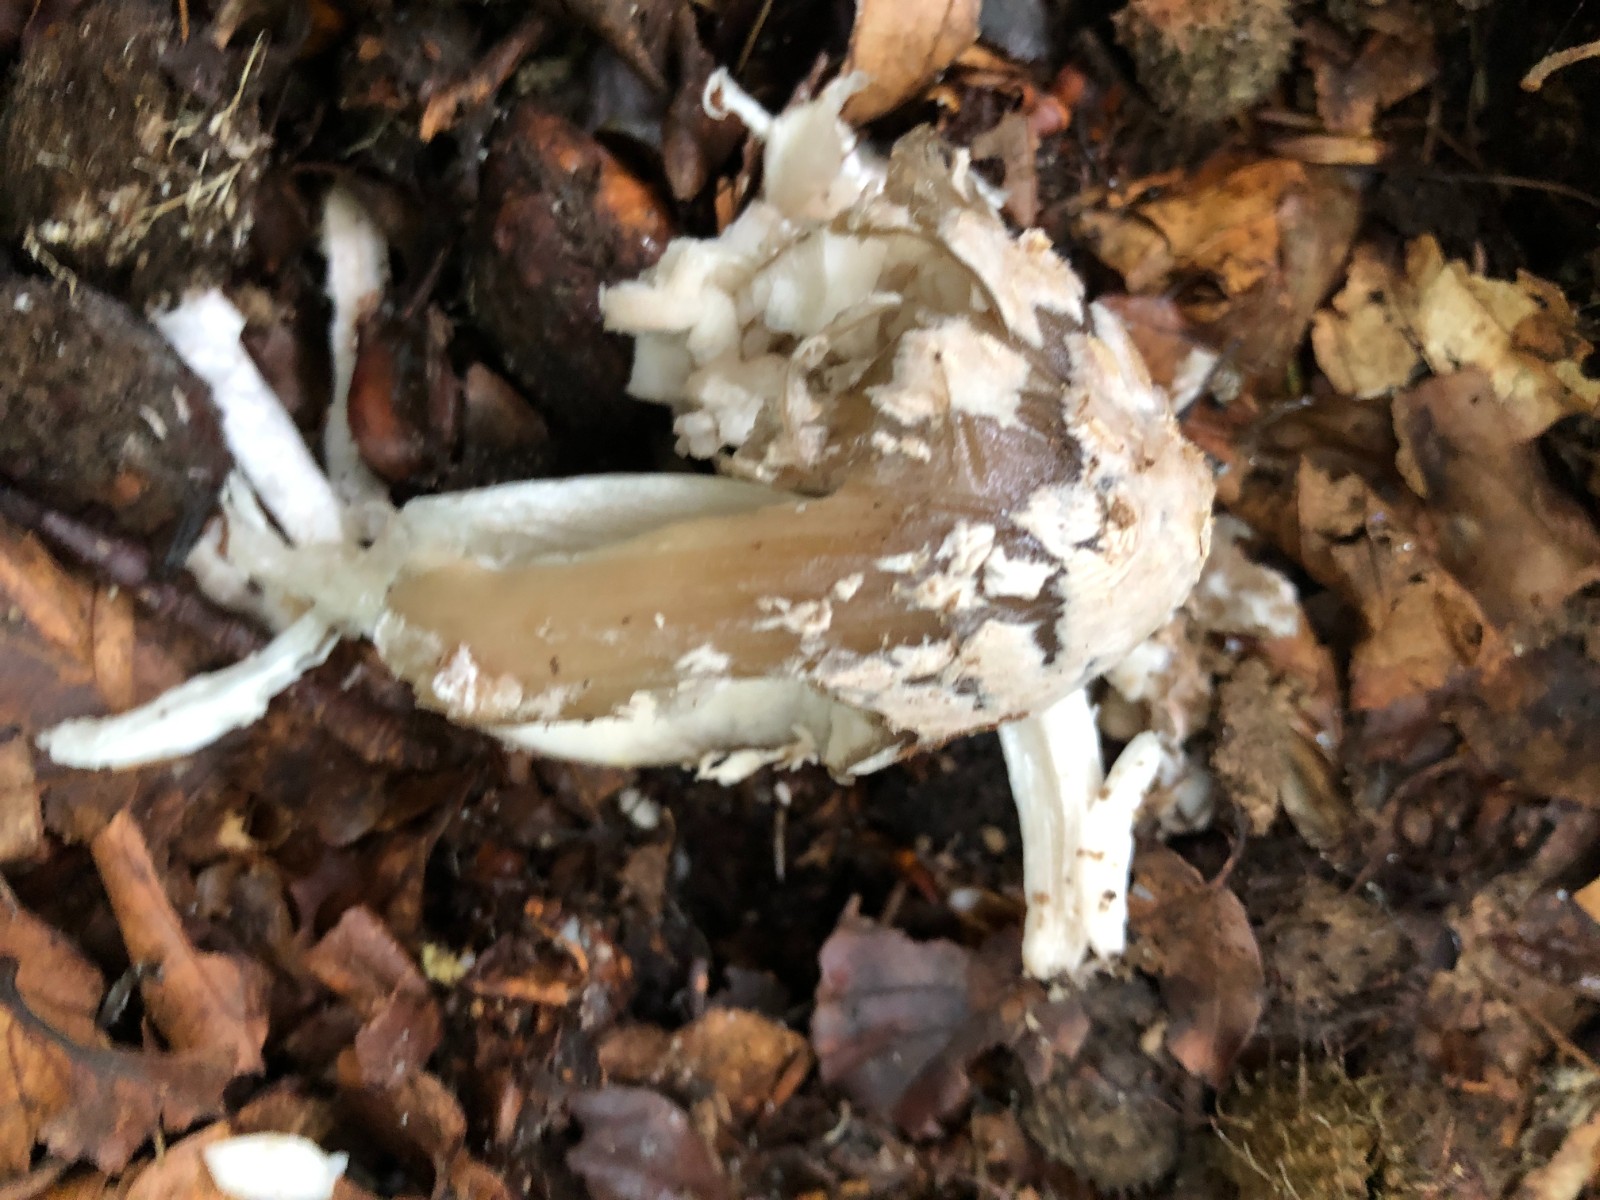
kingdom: Fungi
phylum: Basidiomycota
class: Agaricomycetes
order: Agaricales
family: Psathyrellaceae
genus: Coprinopsis
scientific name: Coprinopsis picacea
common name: skade-blækhat
